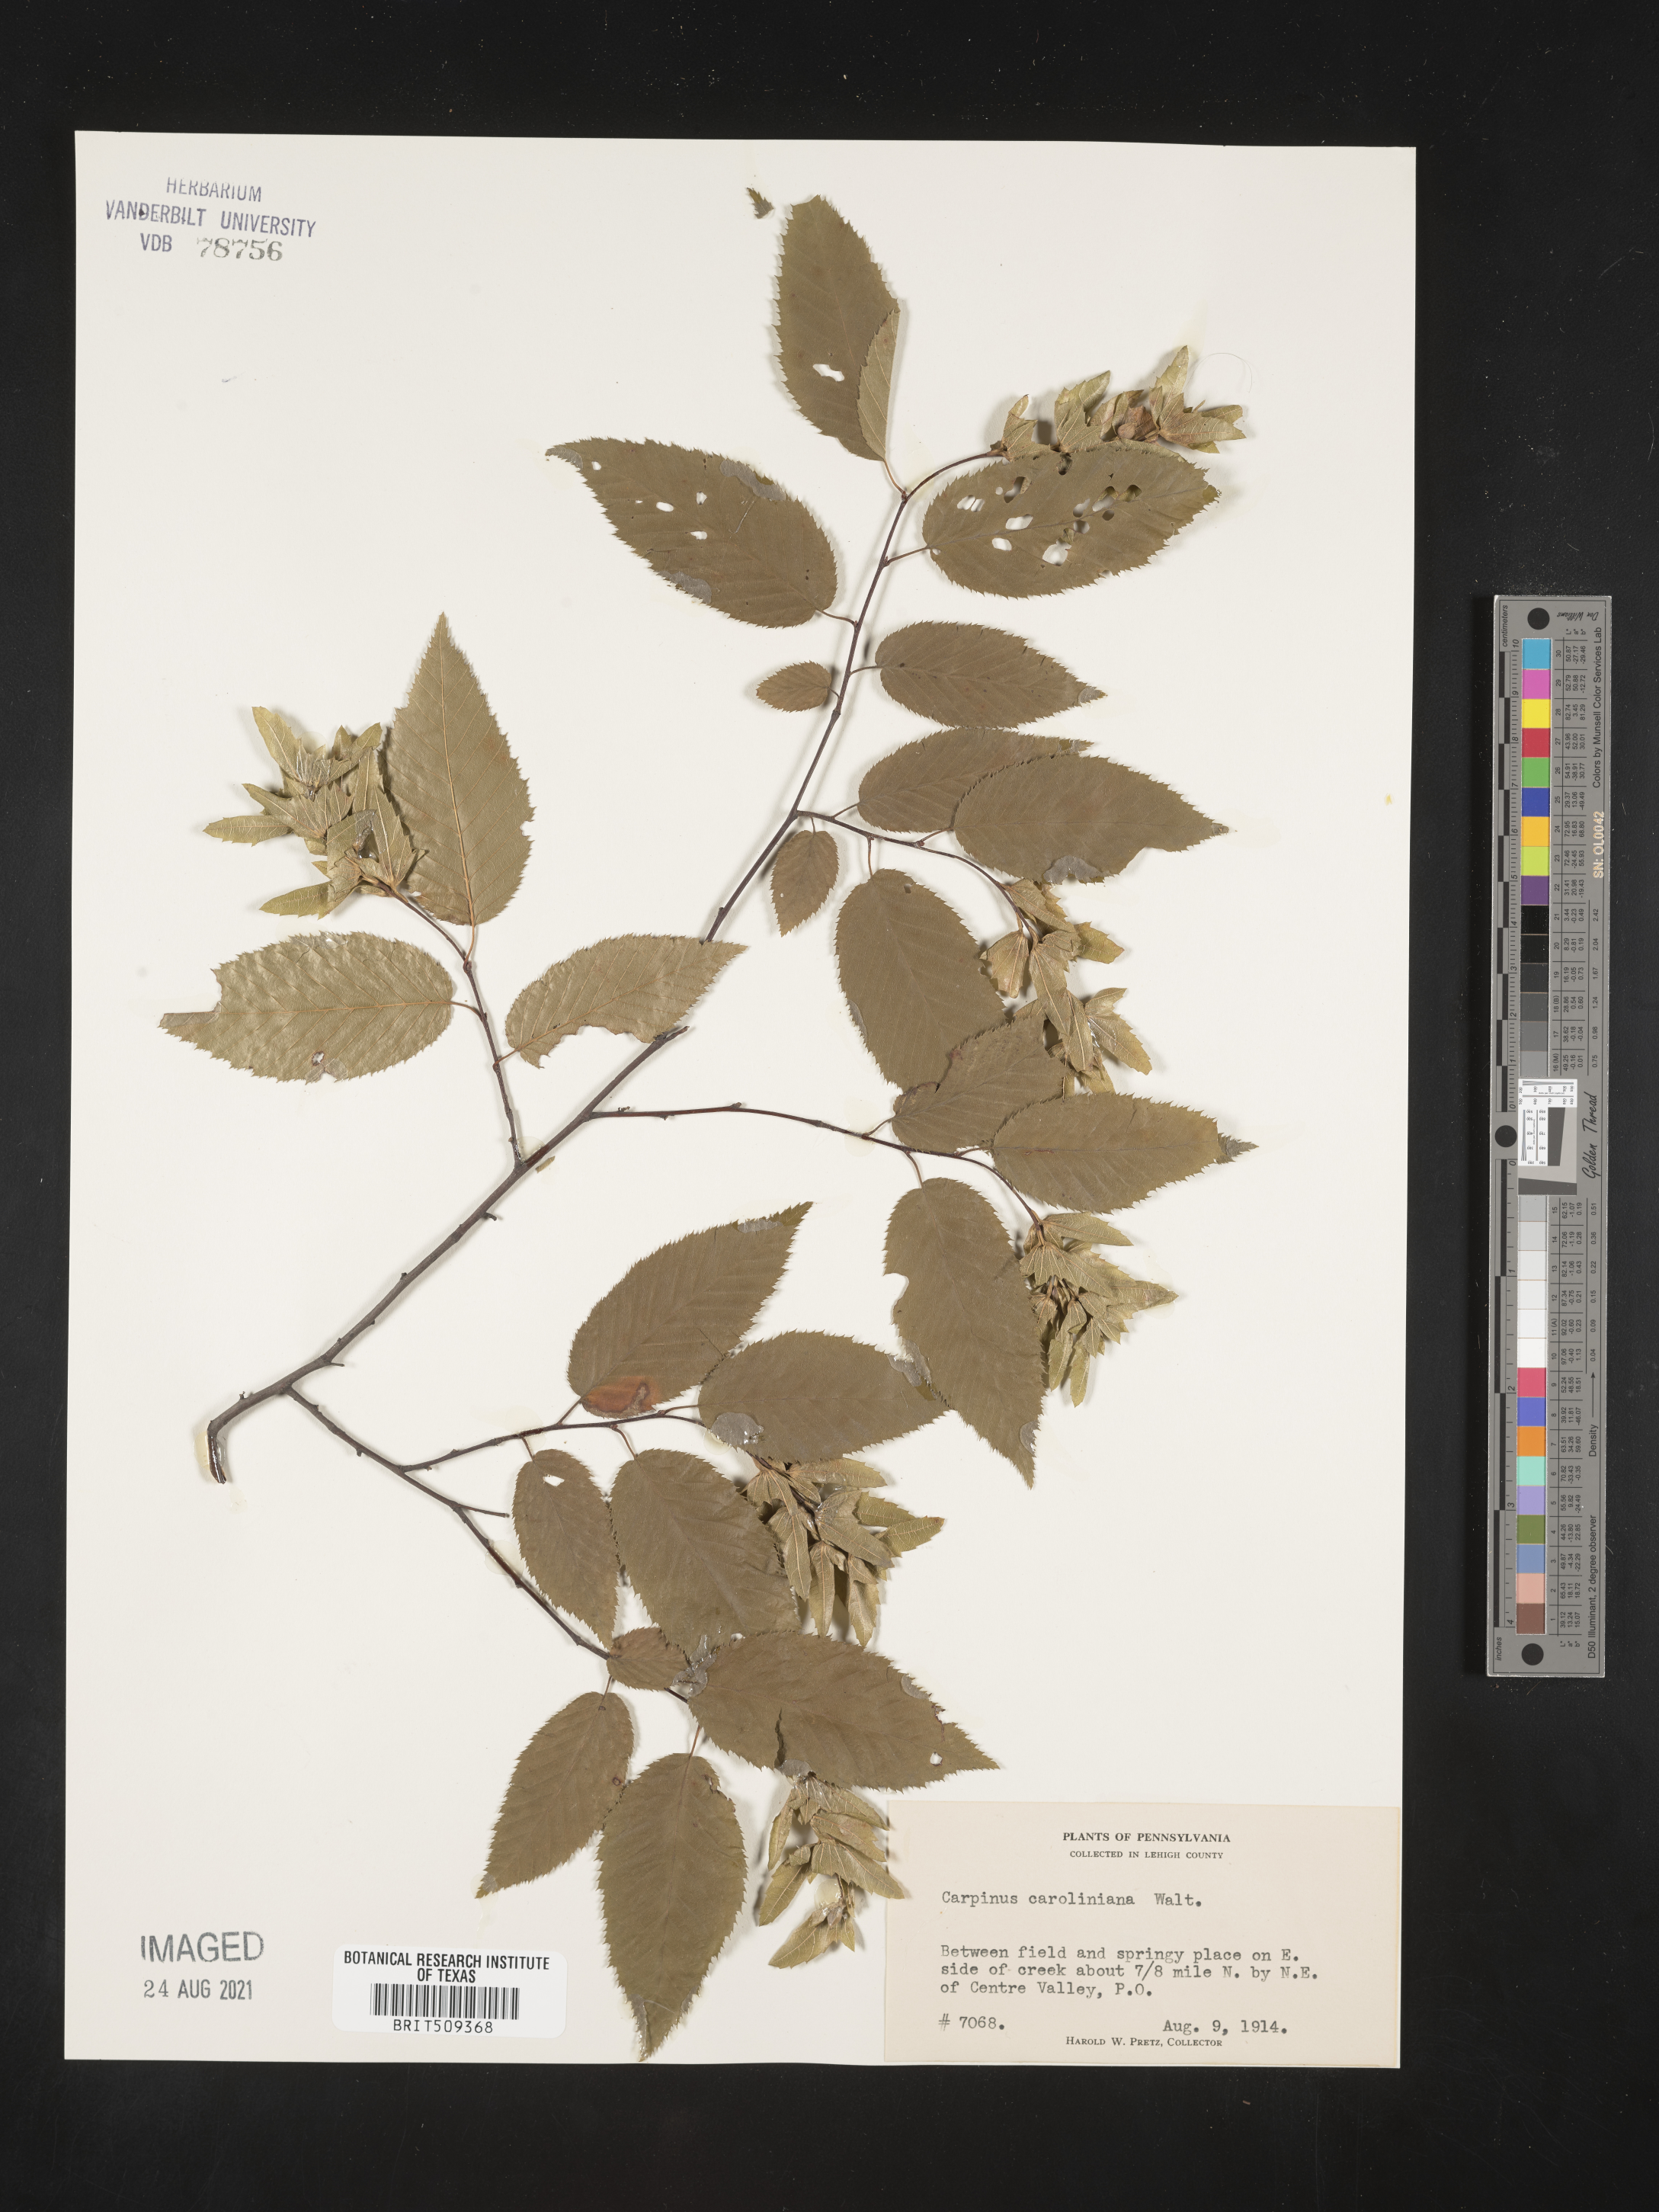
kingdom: Plantae
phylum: Tracheophyta
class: Magnoliopsida
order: Fagales
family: Betulaceae
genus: Carpinus
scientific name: Carpinus caroliniana
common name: American hornbeam
